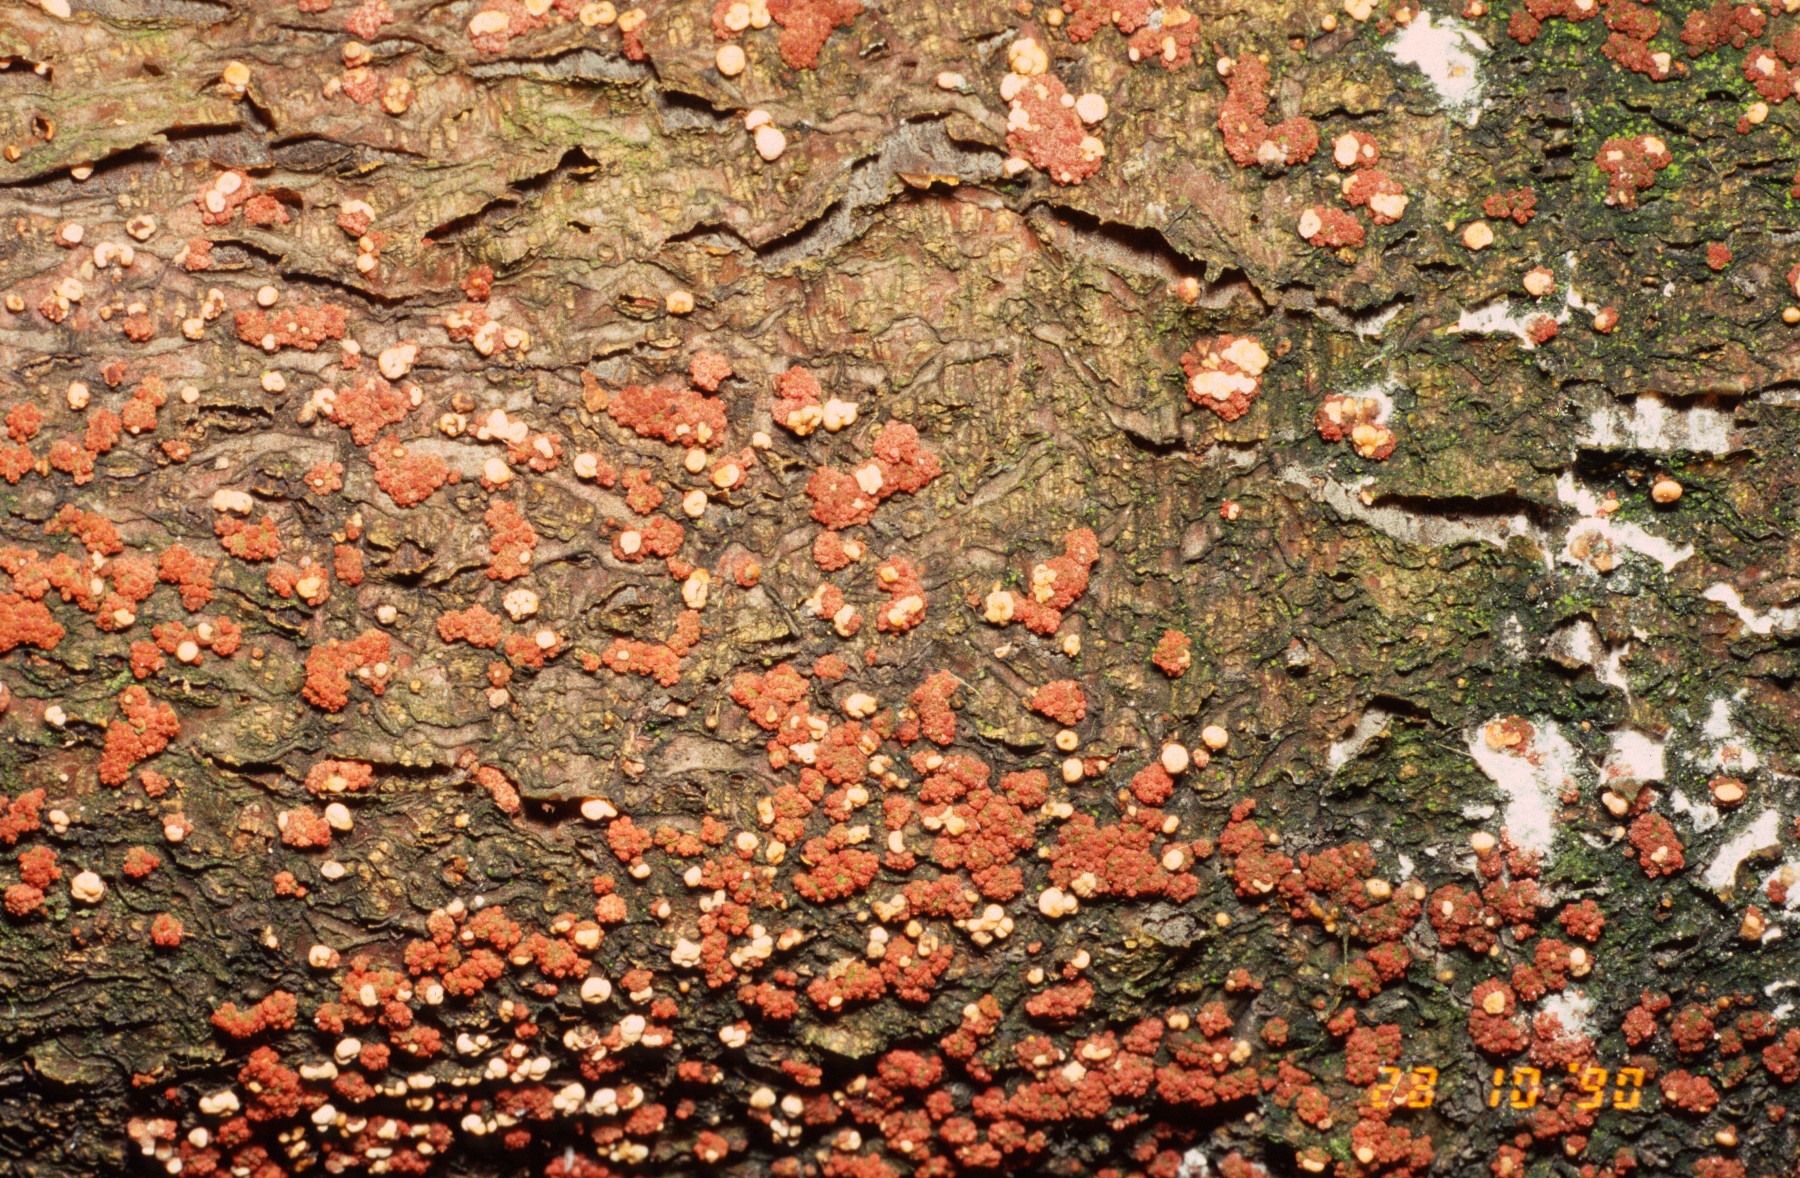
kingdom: Fungi
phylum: Ascomycota
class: Sordariomycetes
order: Hypocreales
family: Nectriaceae
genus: Nectria
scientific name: Nectria cinnabarina
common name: almindelig cinnobersvamp
